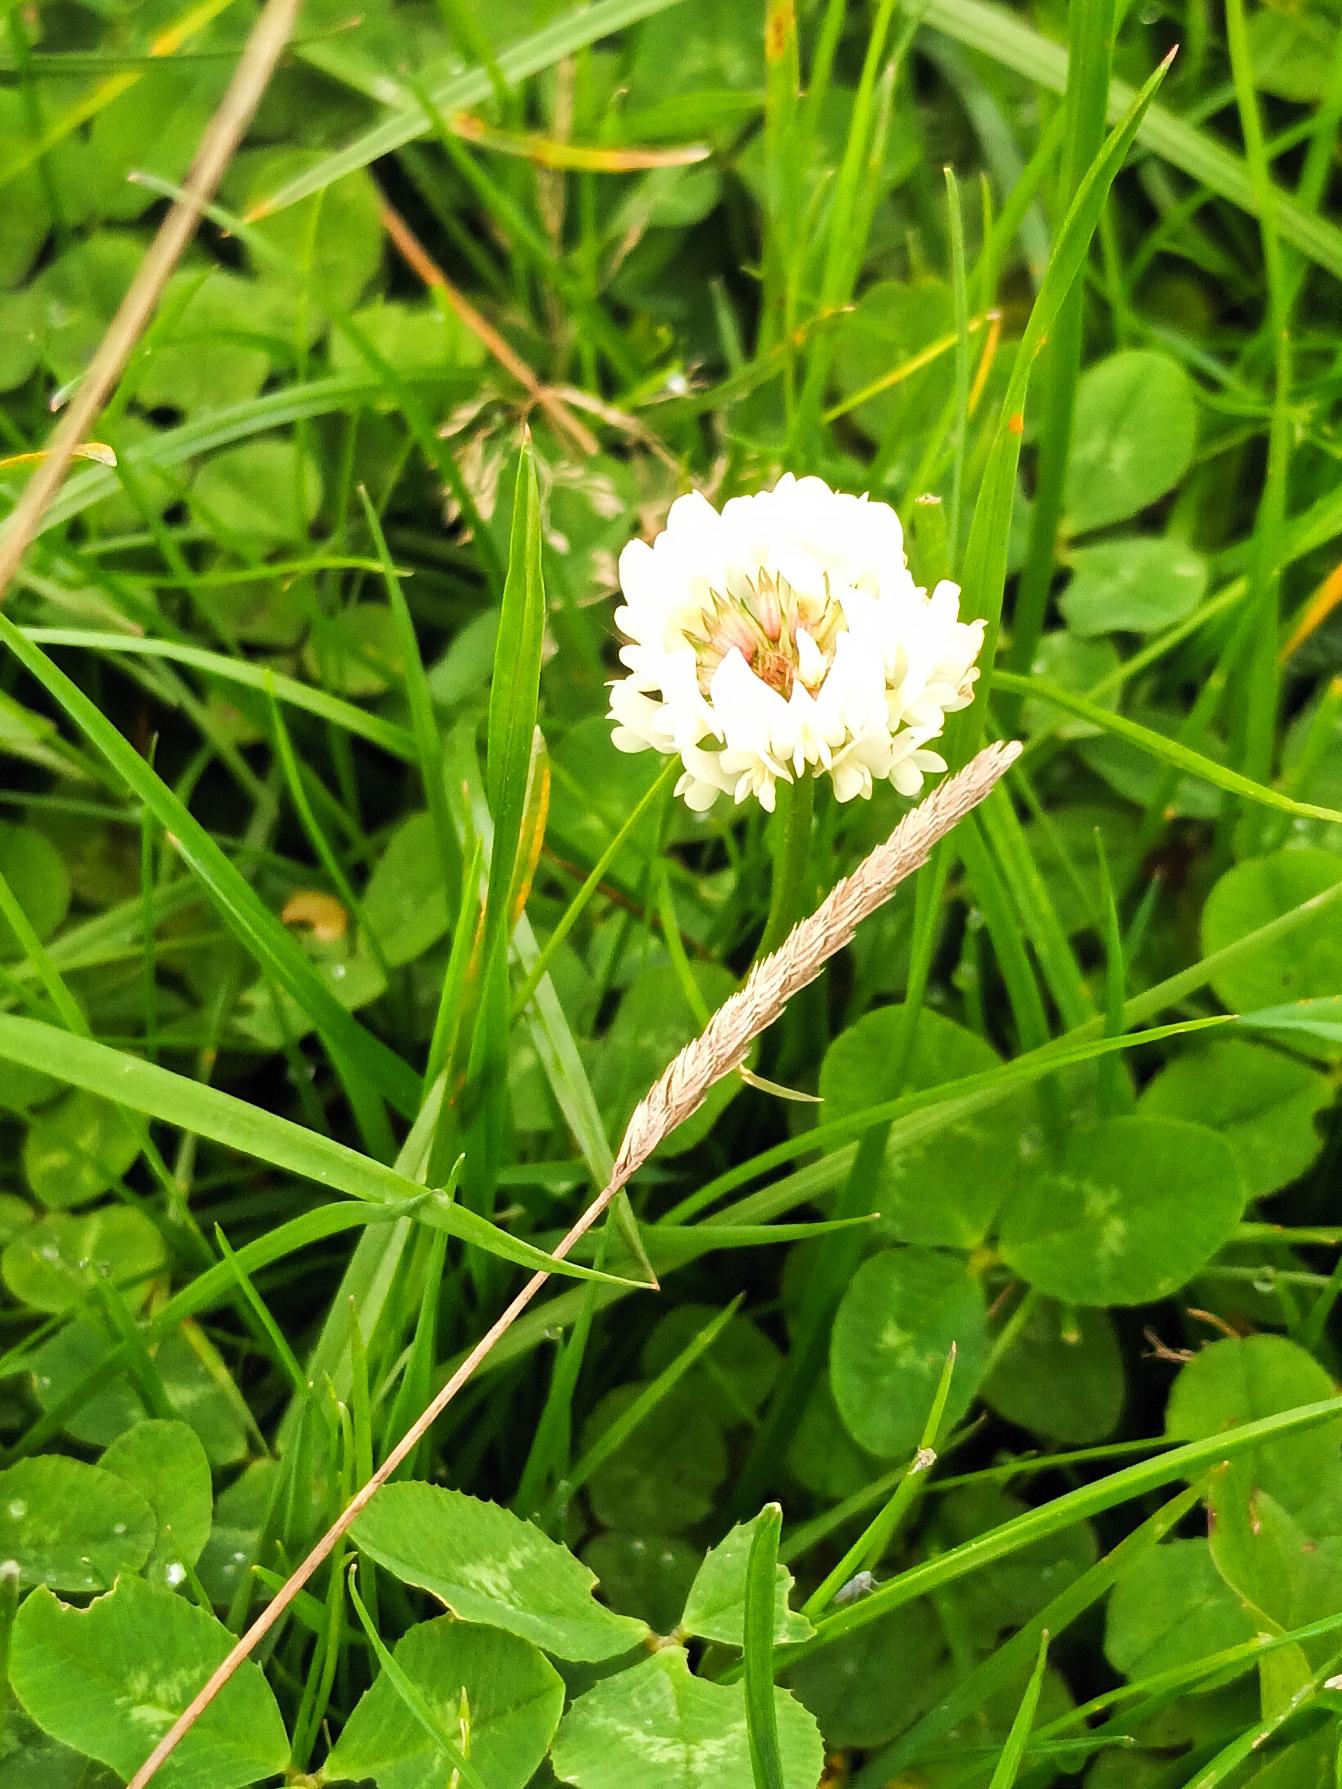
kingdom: Plantae
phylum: Tracheophyta
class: Magnoliopsida
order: Fabales
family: Fabaceae
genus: Trifolium
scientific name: Trifolium repens
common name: Hvid-kløver
